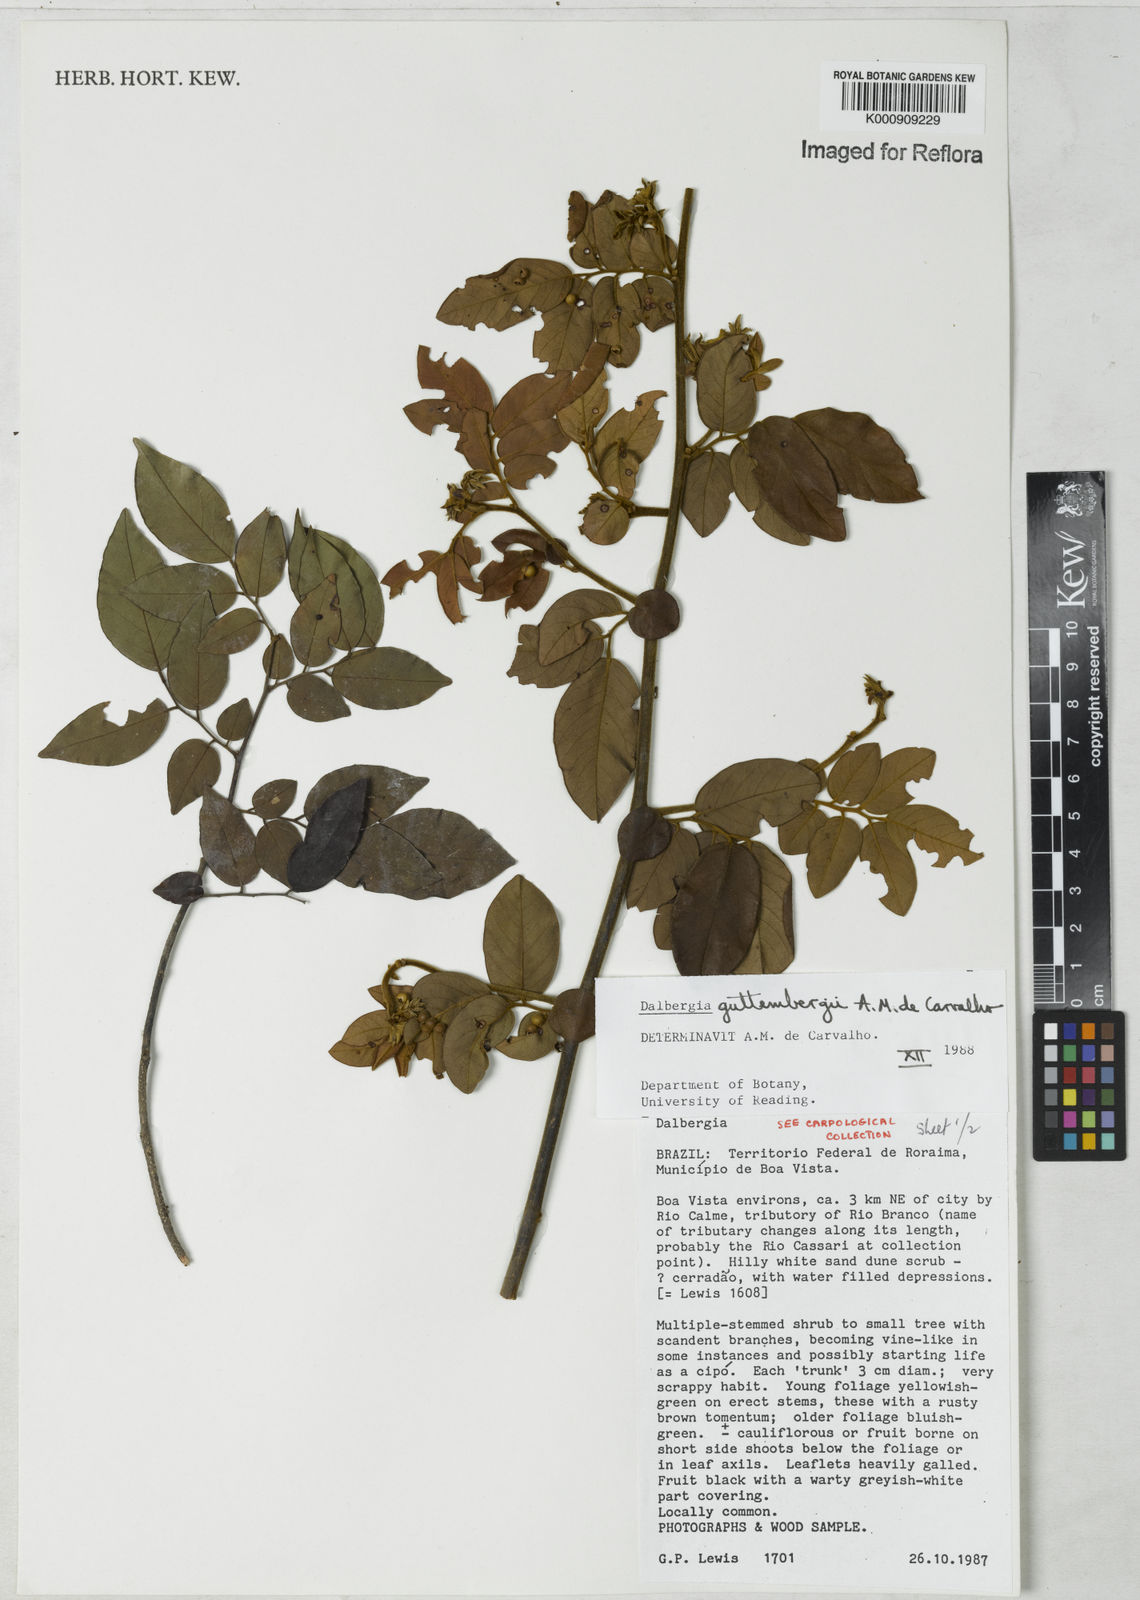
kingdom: Plantae
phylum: Tracheophyta
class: Magnoliopsida
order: Fabales
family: Fabaceae
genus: Dalbergia
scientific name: Dalbergia guttembergii
